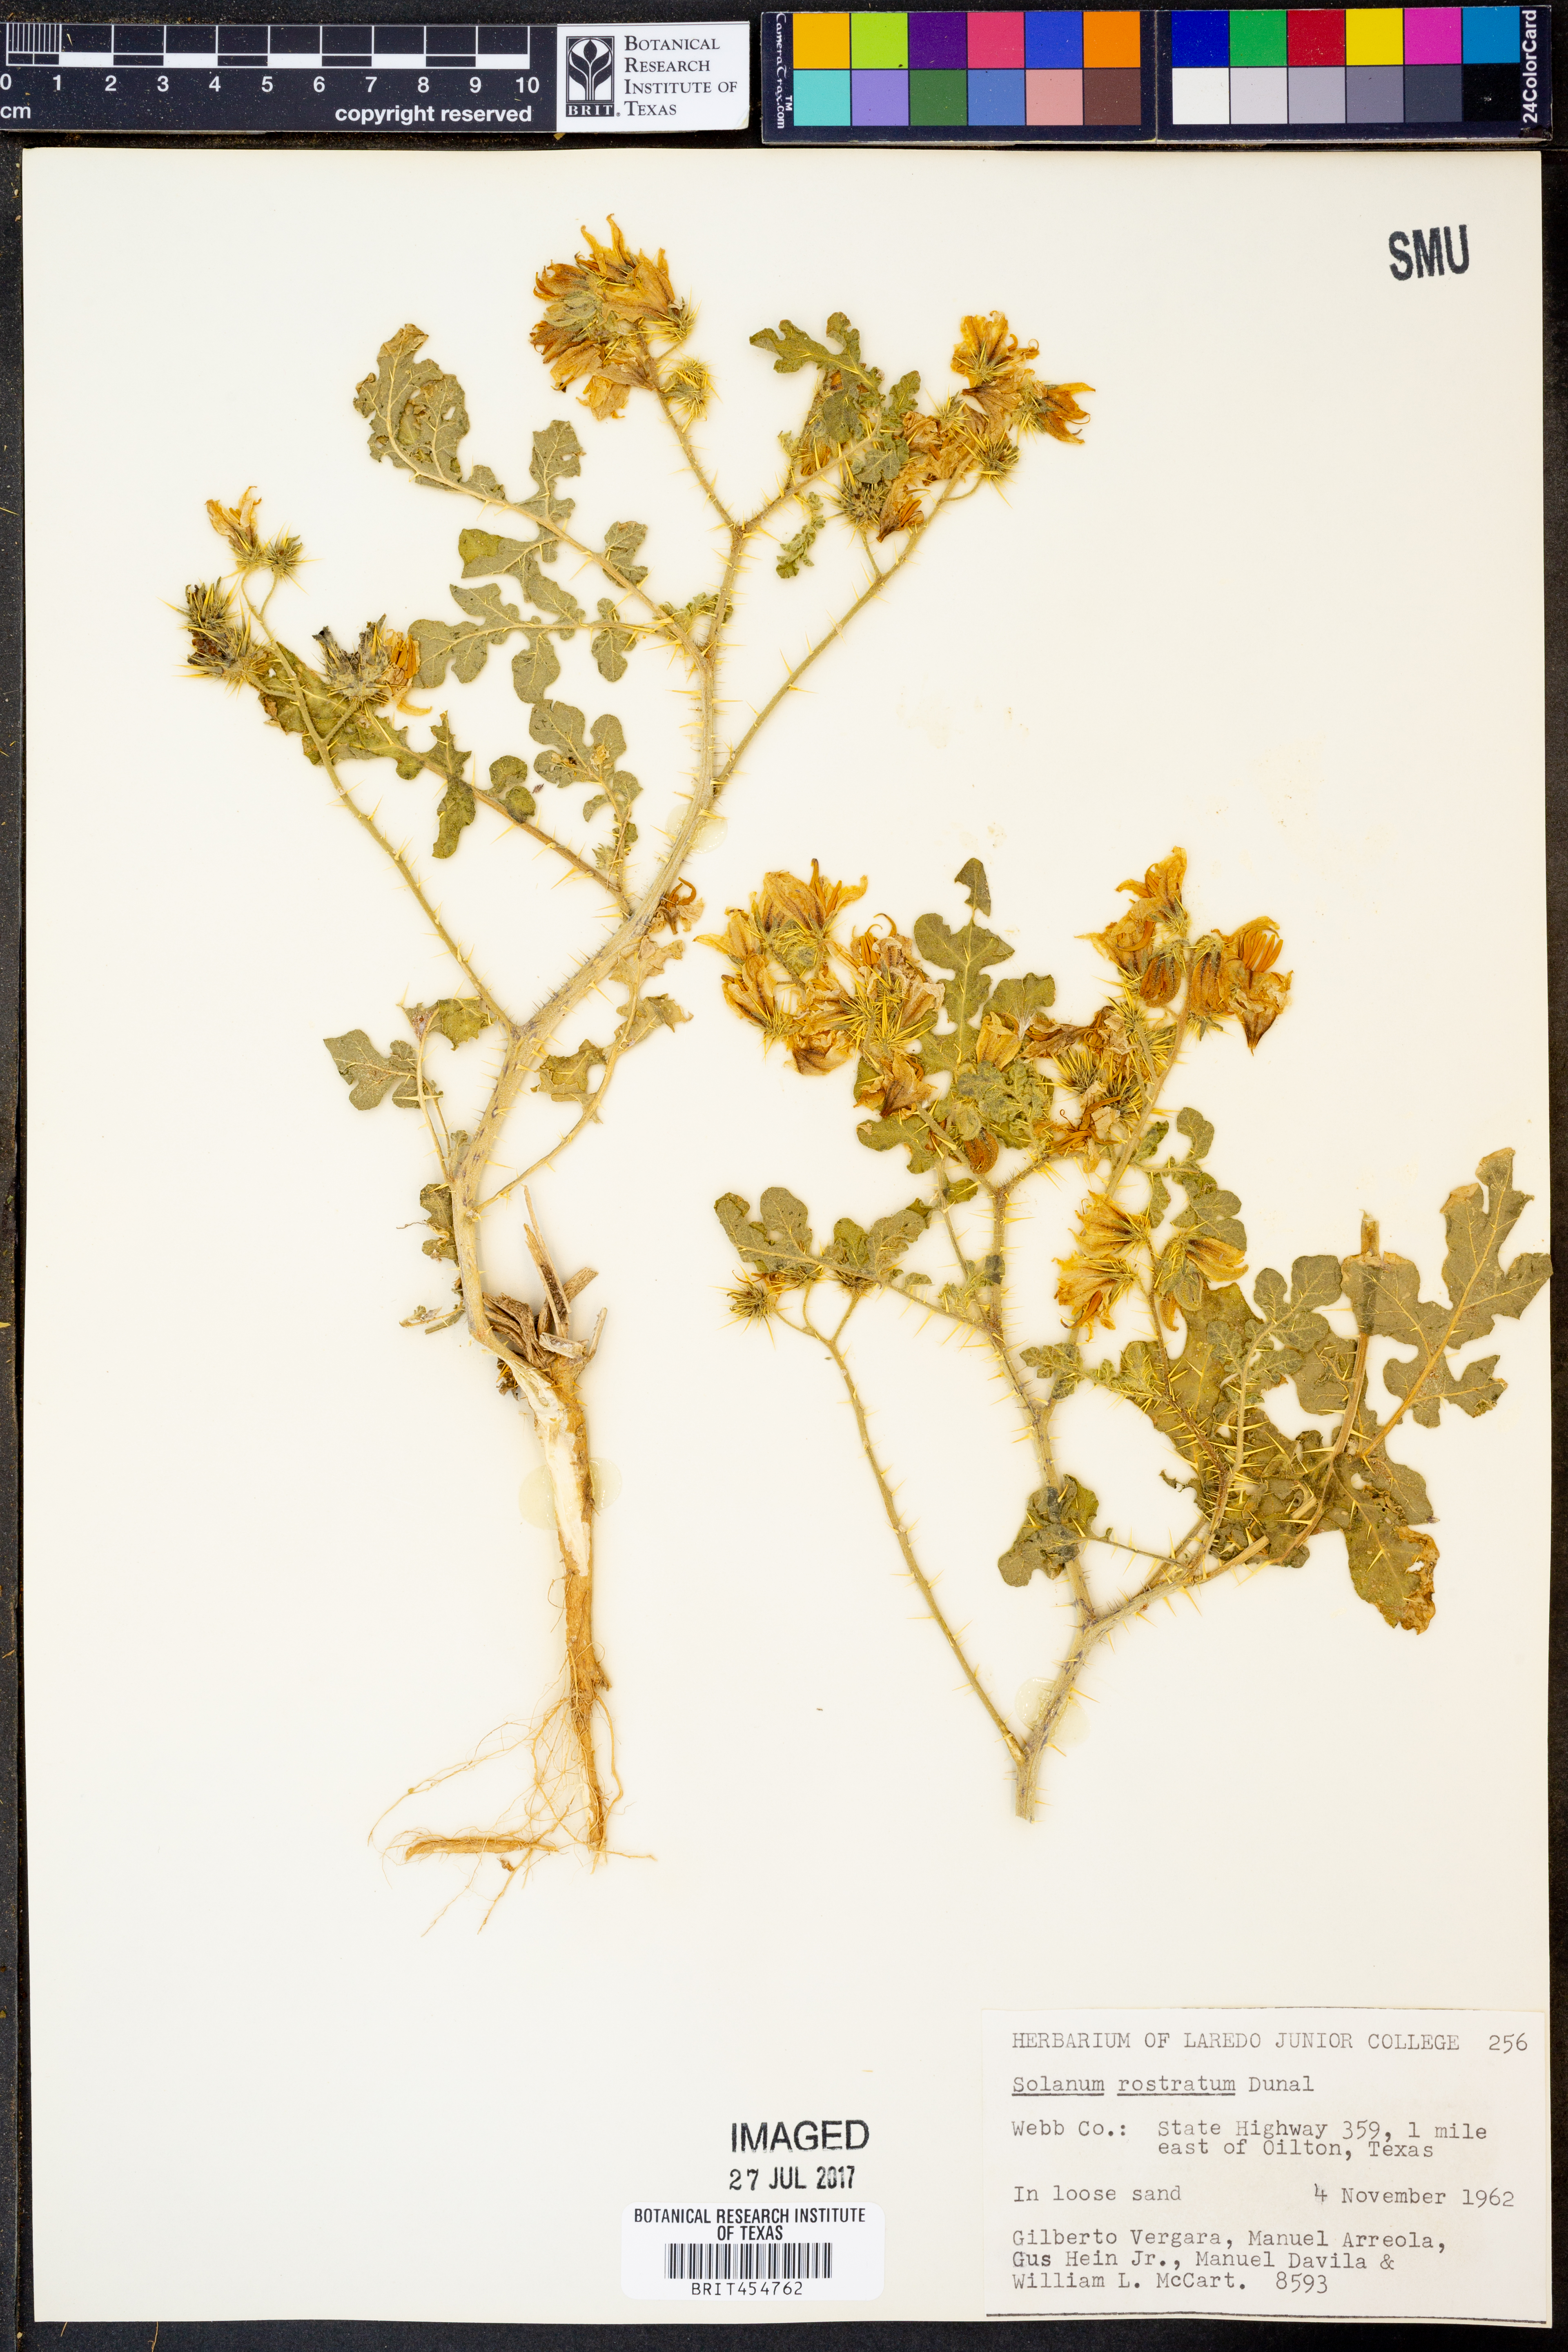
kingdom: Plantae
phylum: Tracheophyta
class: Magnoliopsida
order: Solanales
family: Solanaceae
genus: Solanum
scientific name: Solanum angustifolium
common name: Buffalobur nightshade
